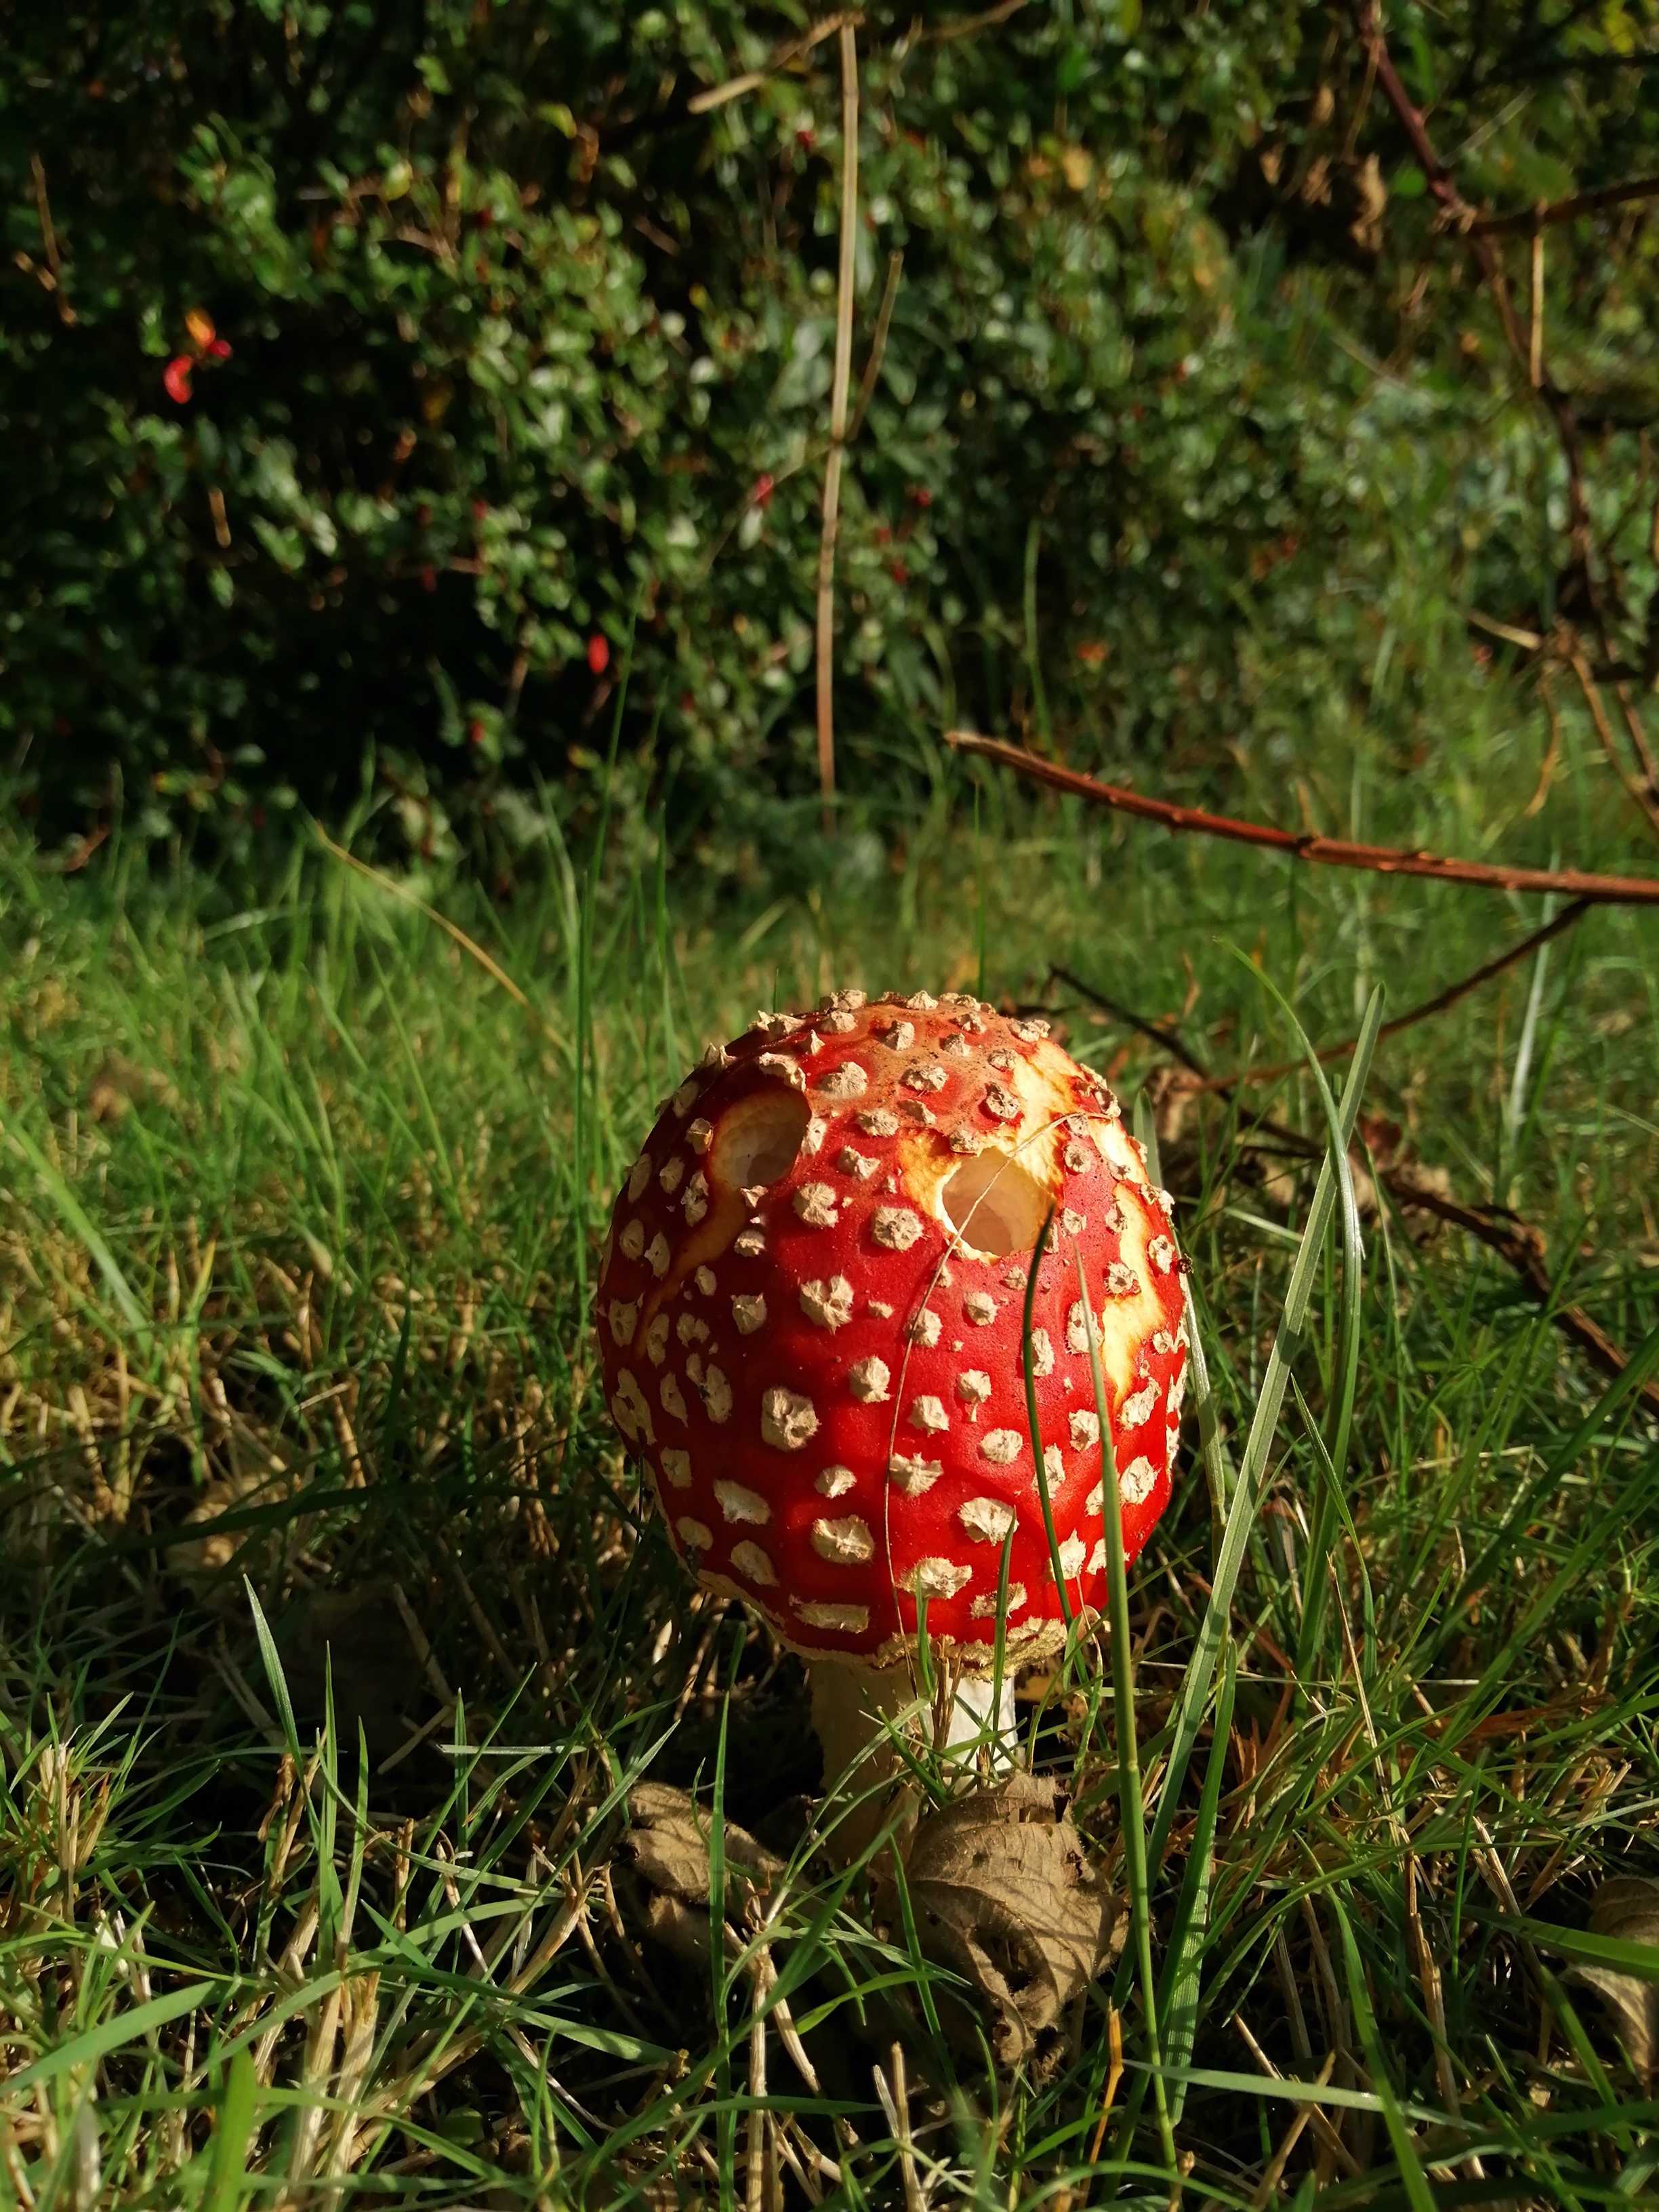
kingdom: Fungi
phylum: Basidiomycota
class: Agaricomycetes
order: Agaricales
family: Amanitaceae
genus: Amanita
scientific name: Amanita muscaria
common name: rød fluesvamp
